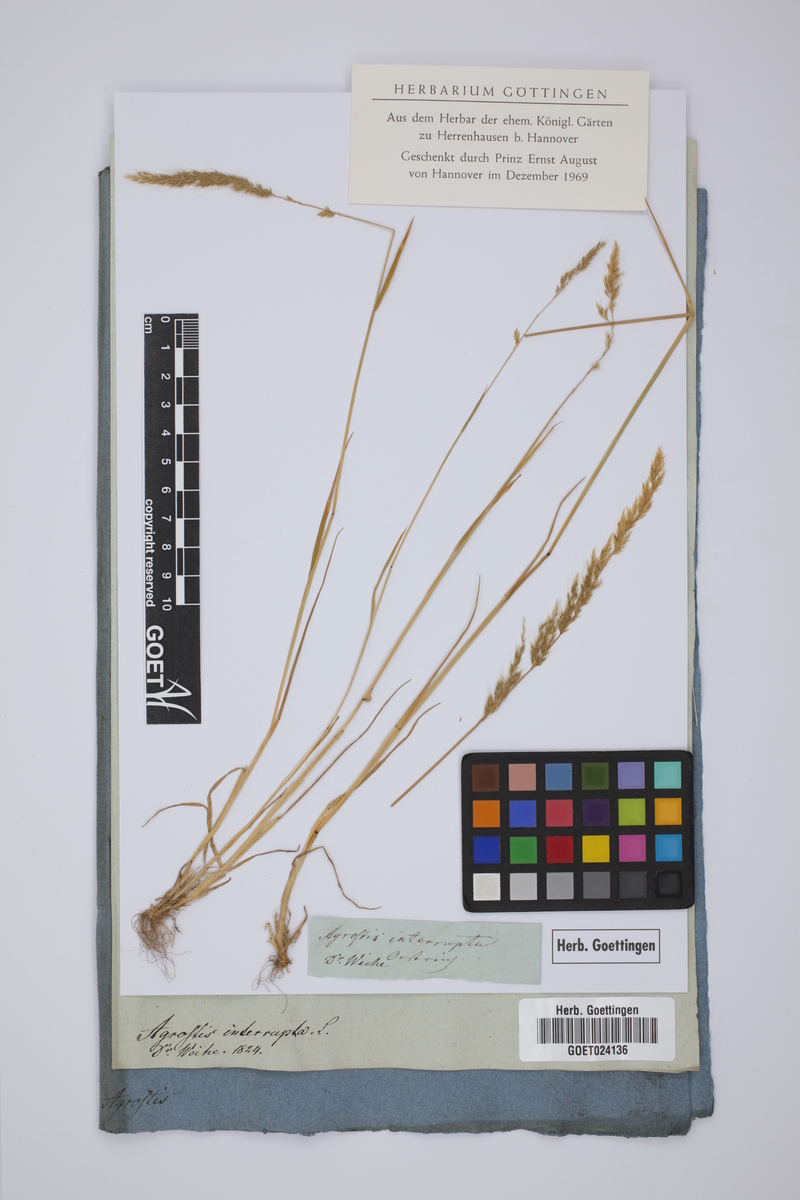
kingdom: Plantae
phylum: Tracheophyta
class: Liliopsida
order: Poales
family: Poaceae
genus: Apera
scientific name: Apera interrupta
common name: Dense silky-bent
